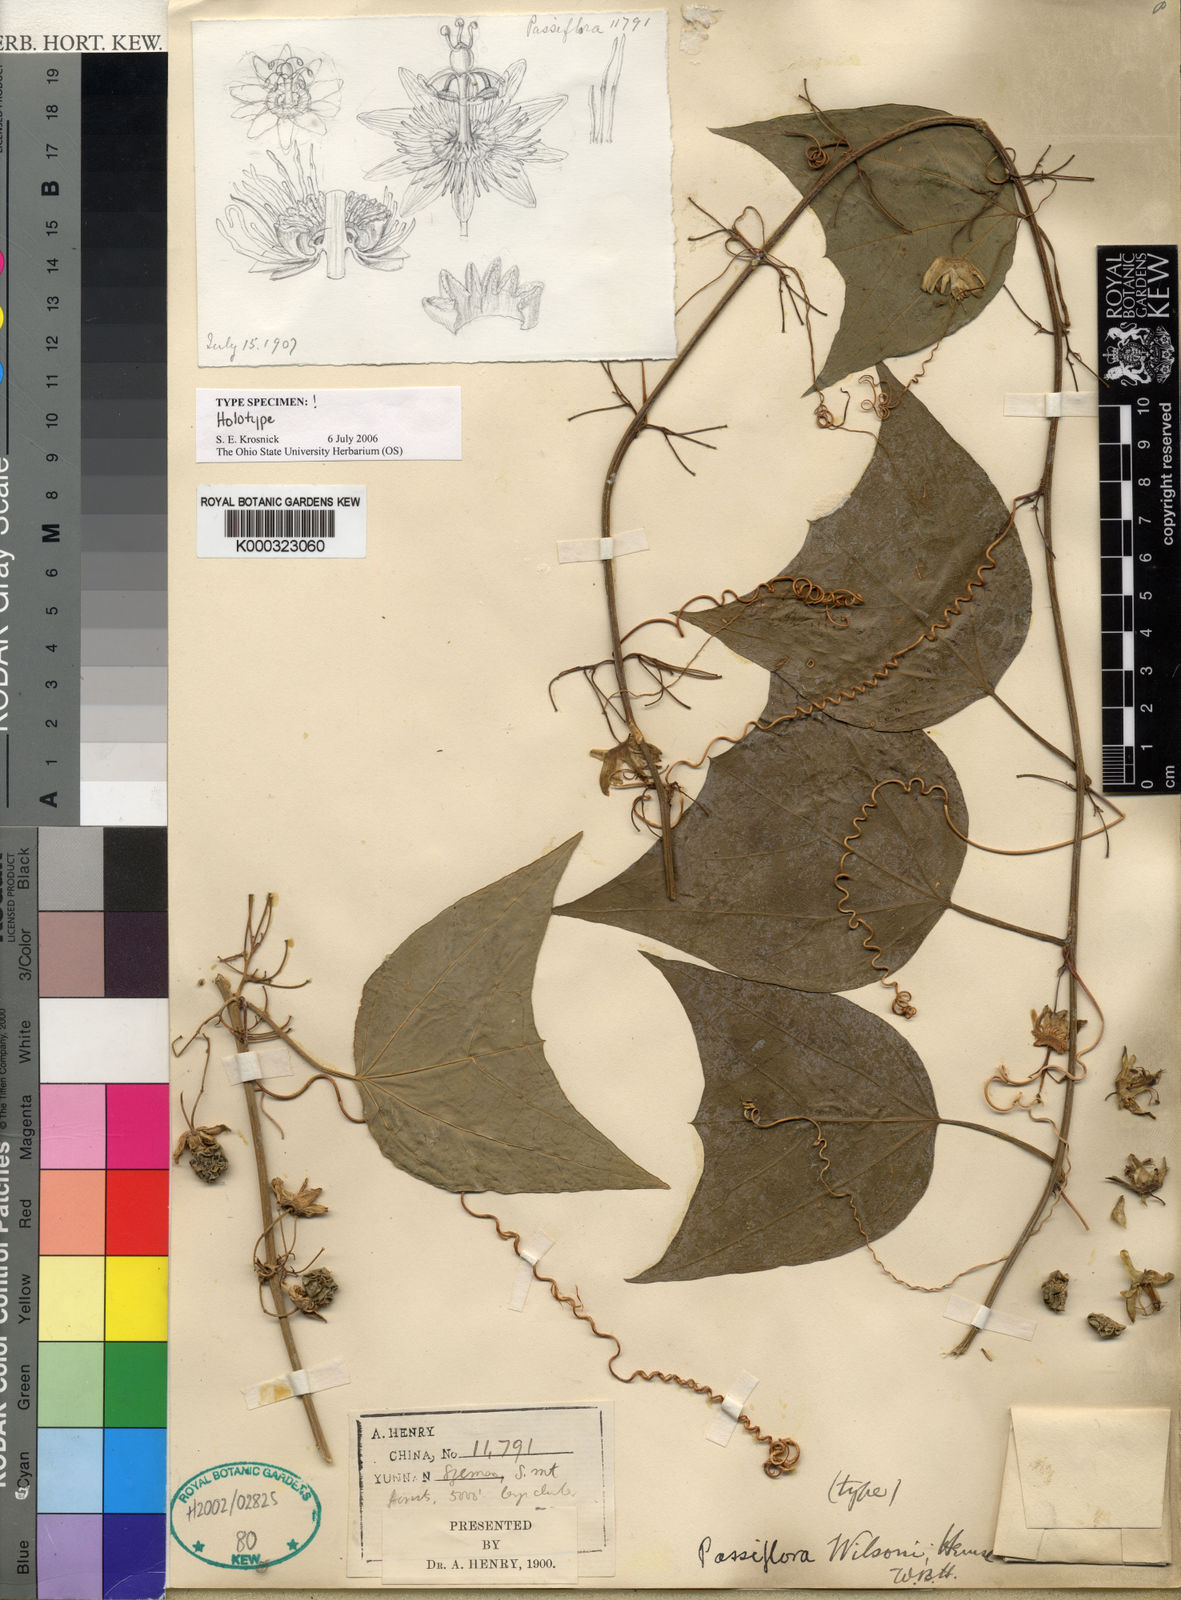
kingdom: Plantae
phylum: Tracheophyta
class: Magnoliopsida
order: Malpighiales
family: Passifloraceae
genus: Passiflora
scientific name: Passiflora wilsonii
